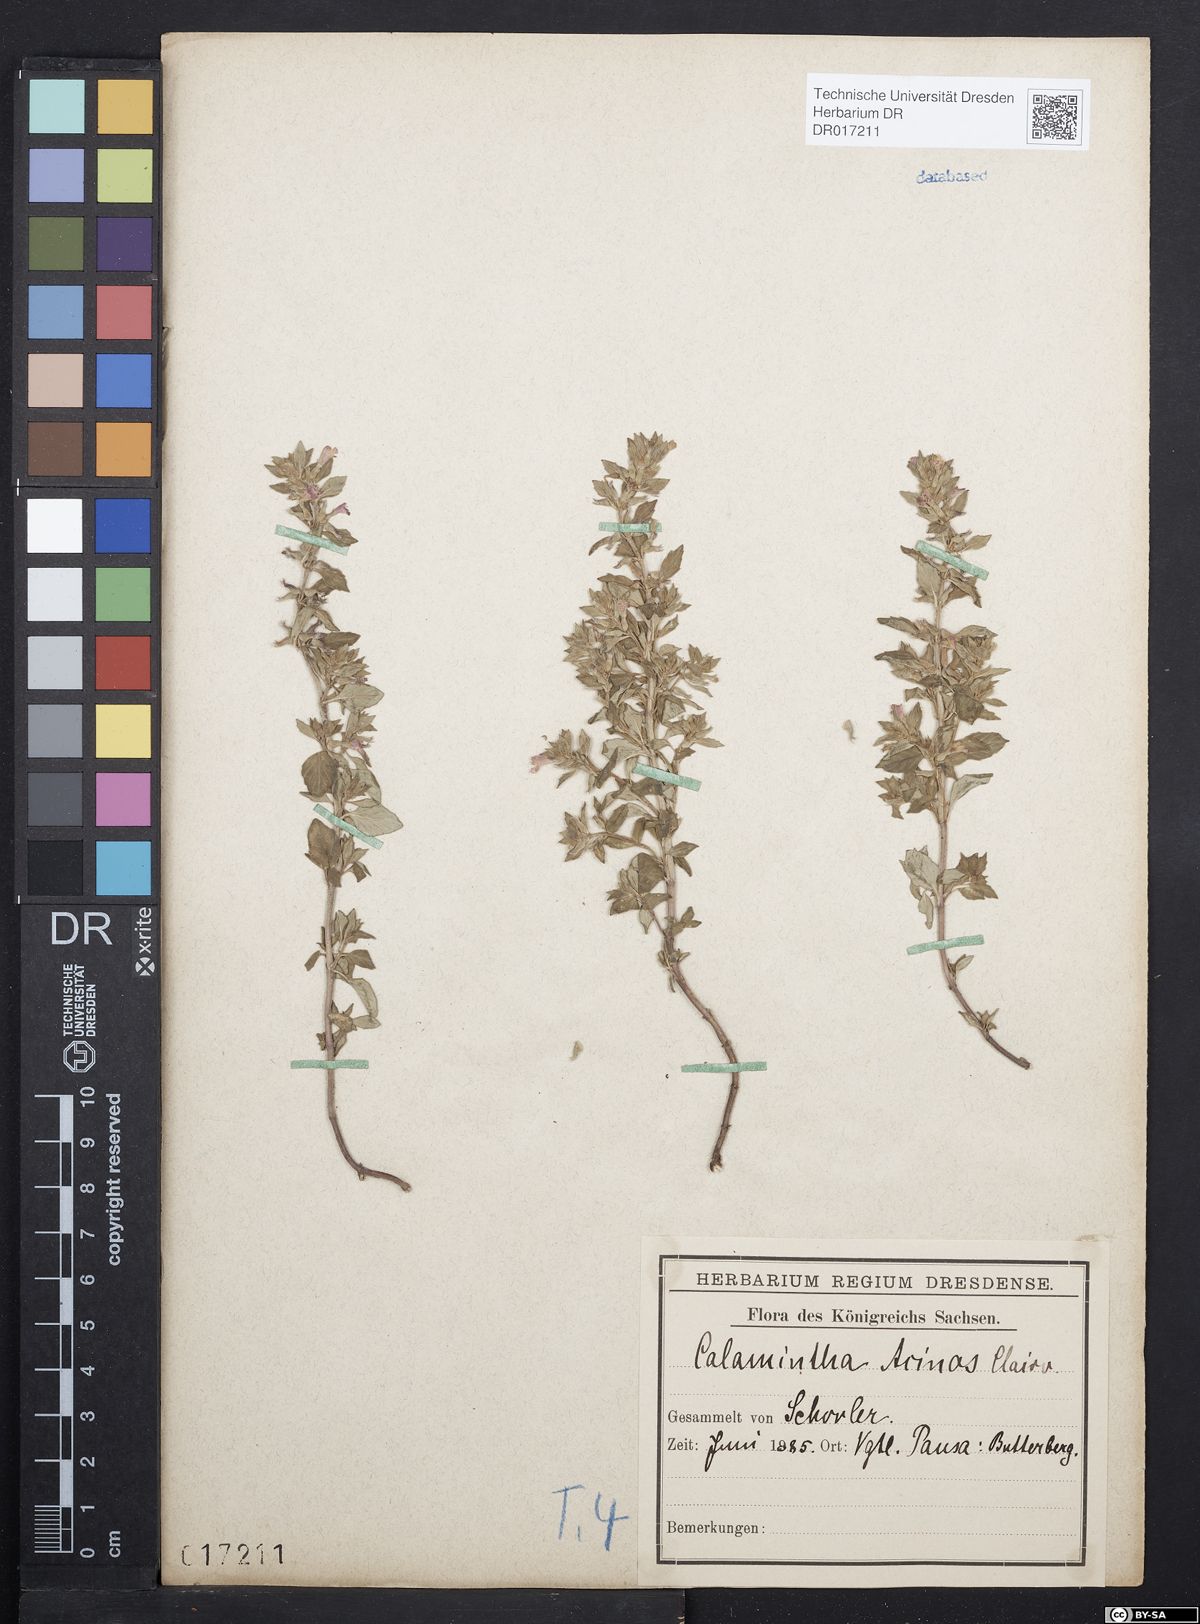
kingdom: Plantae
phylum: Tracheophyta
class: Magnoliopsida
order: Lamiales
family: Lamiaceae
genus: Clinopodium
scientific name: Clinopodium acinos
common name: Basil thyme
